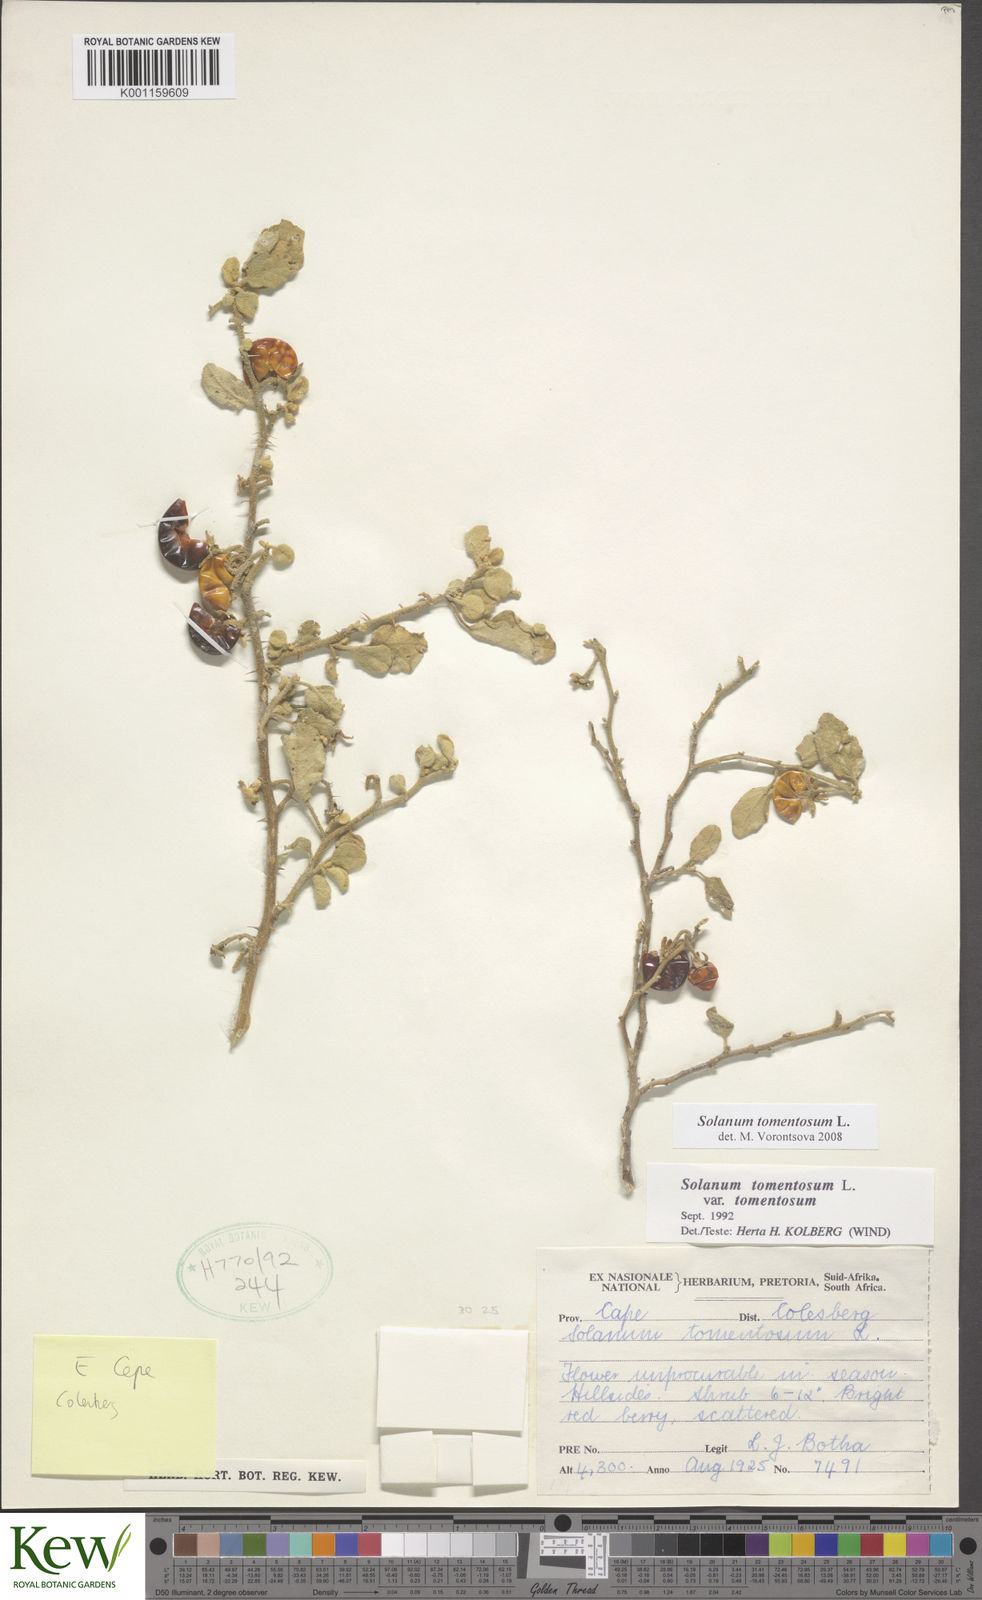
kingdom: Plantae
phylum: Tracheophyta
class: Magnoliopsida
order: Solanales
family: Solanaceae
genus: Solanum
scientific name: Solanum tomentosum
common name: Wild aubergine
